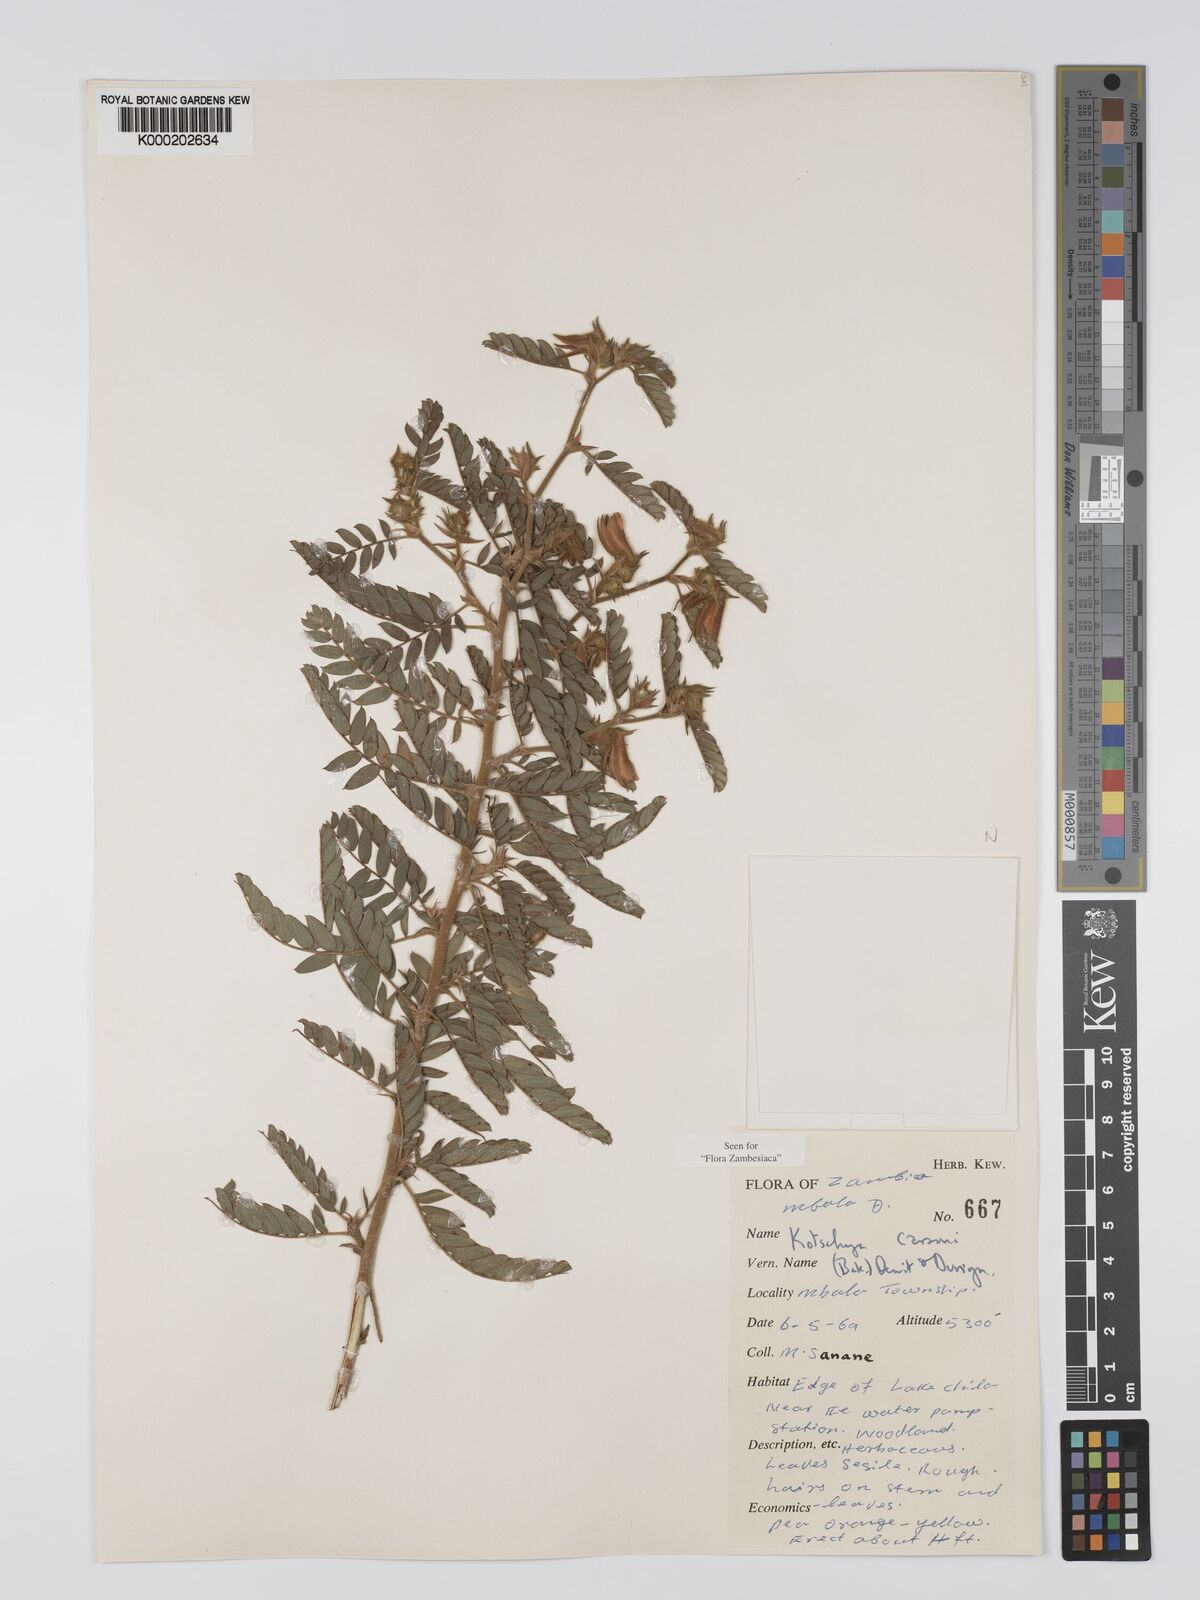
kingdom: Plantae
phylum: Tracheophyta
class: Magnoliopsida
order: Fabales
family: Fabaceae
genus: Kotschya
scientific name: Kotschya carsonii
